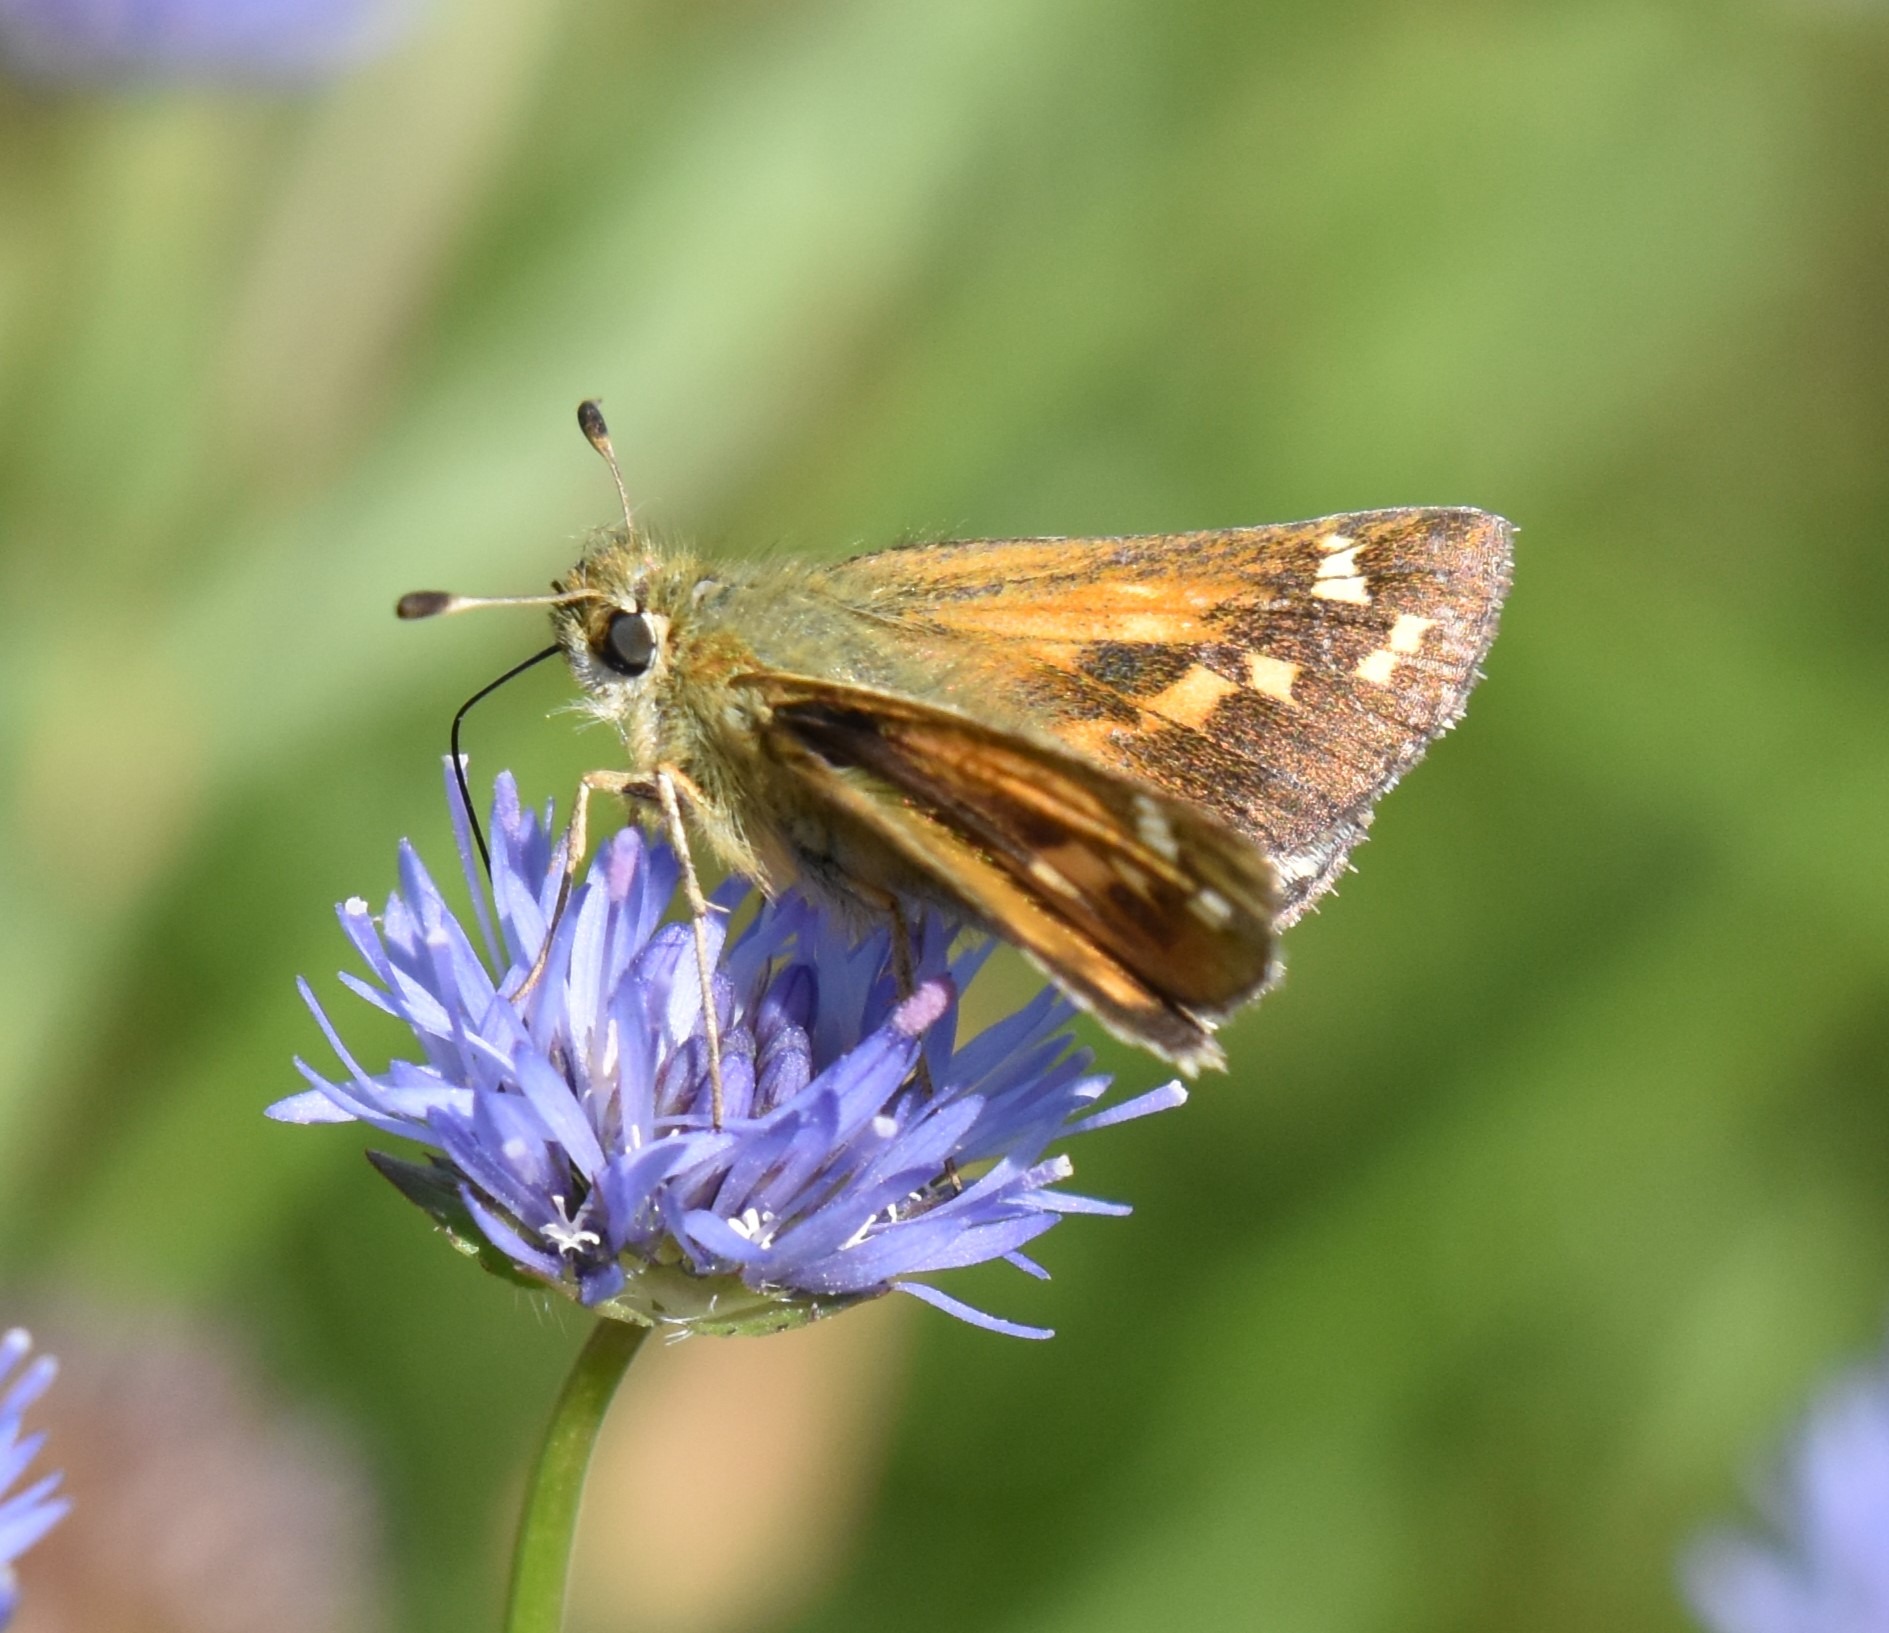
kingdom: Animalia
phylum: Arthropoda
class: Insecta
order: Lepidoptera
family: Hesperiidae
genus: Hesperia
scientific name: Hesperia comma
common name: Kommabredpande
